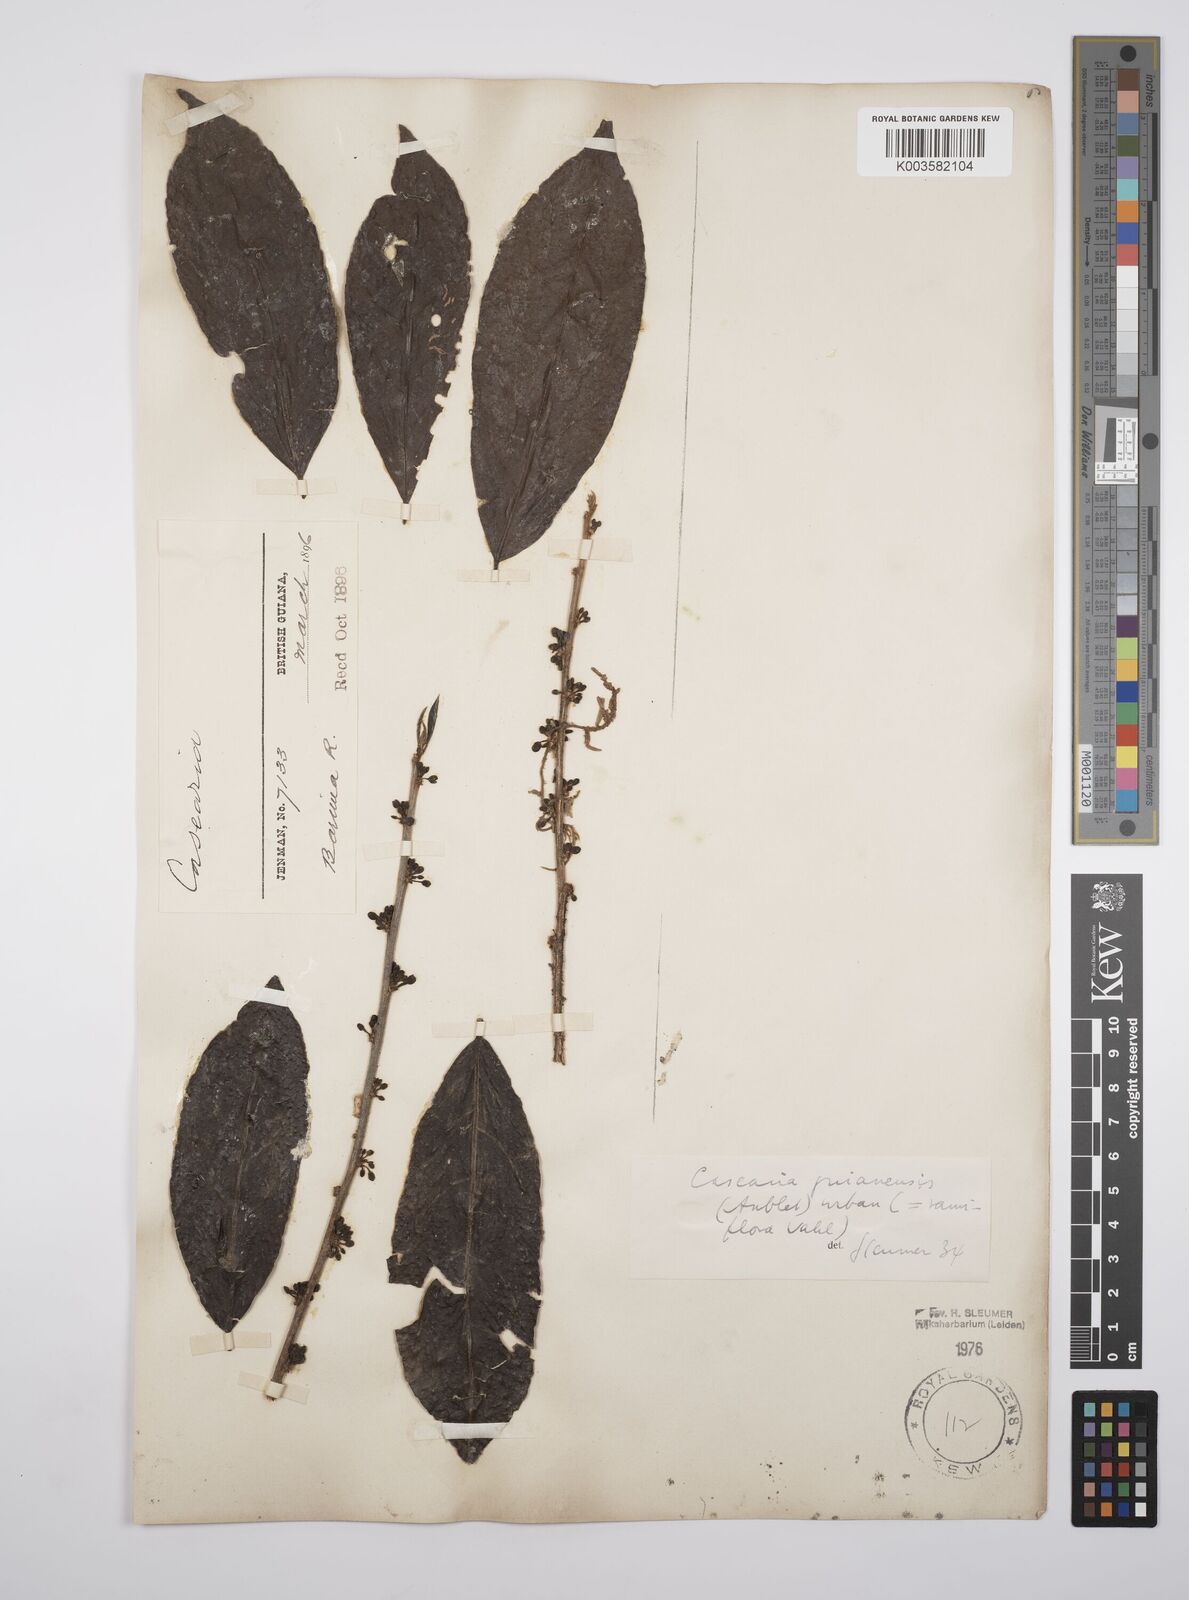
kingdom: Plantae
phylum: Tracheophyta
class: Magnoliopsida
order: Malpighiales
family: Salicaceae
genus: Casearia
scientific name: Casearia guianensis
